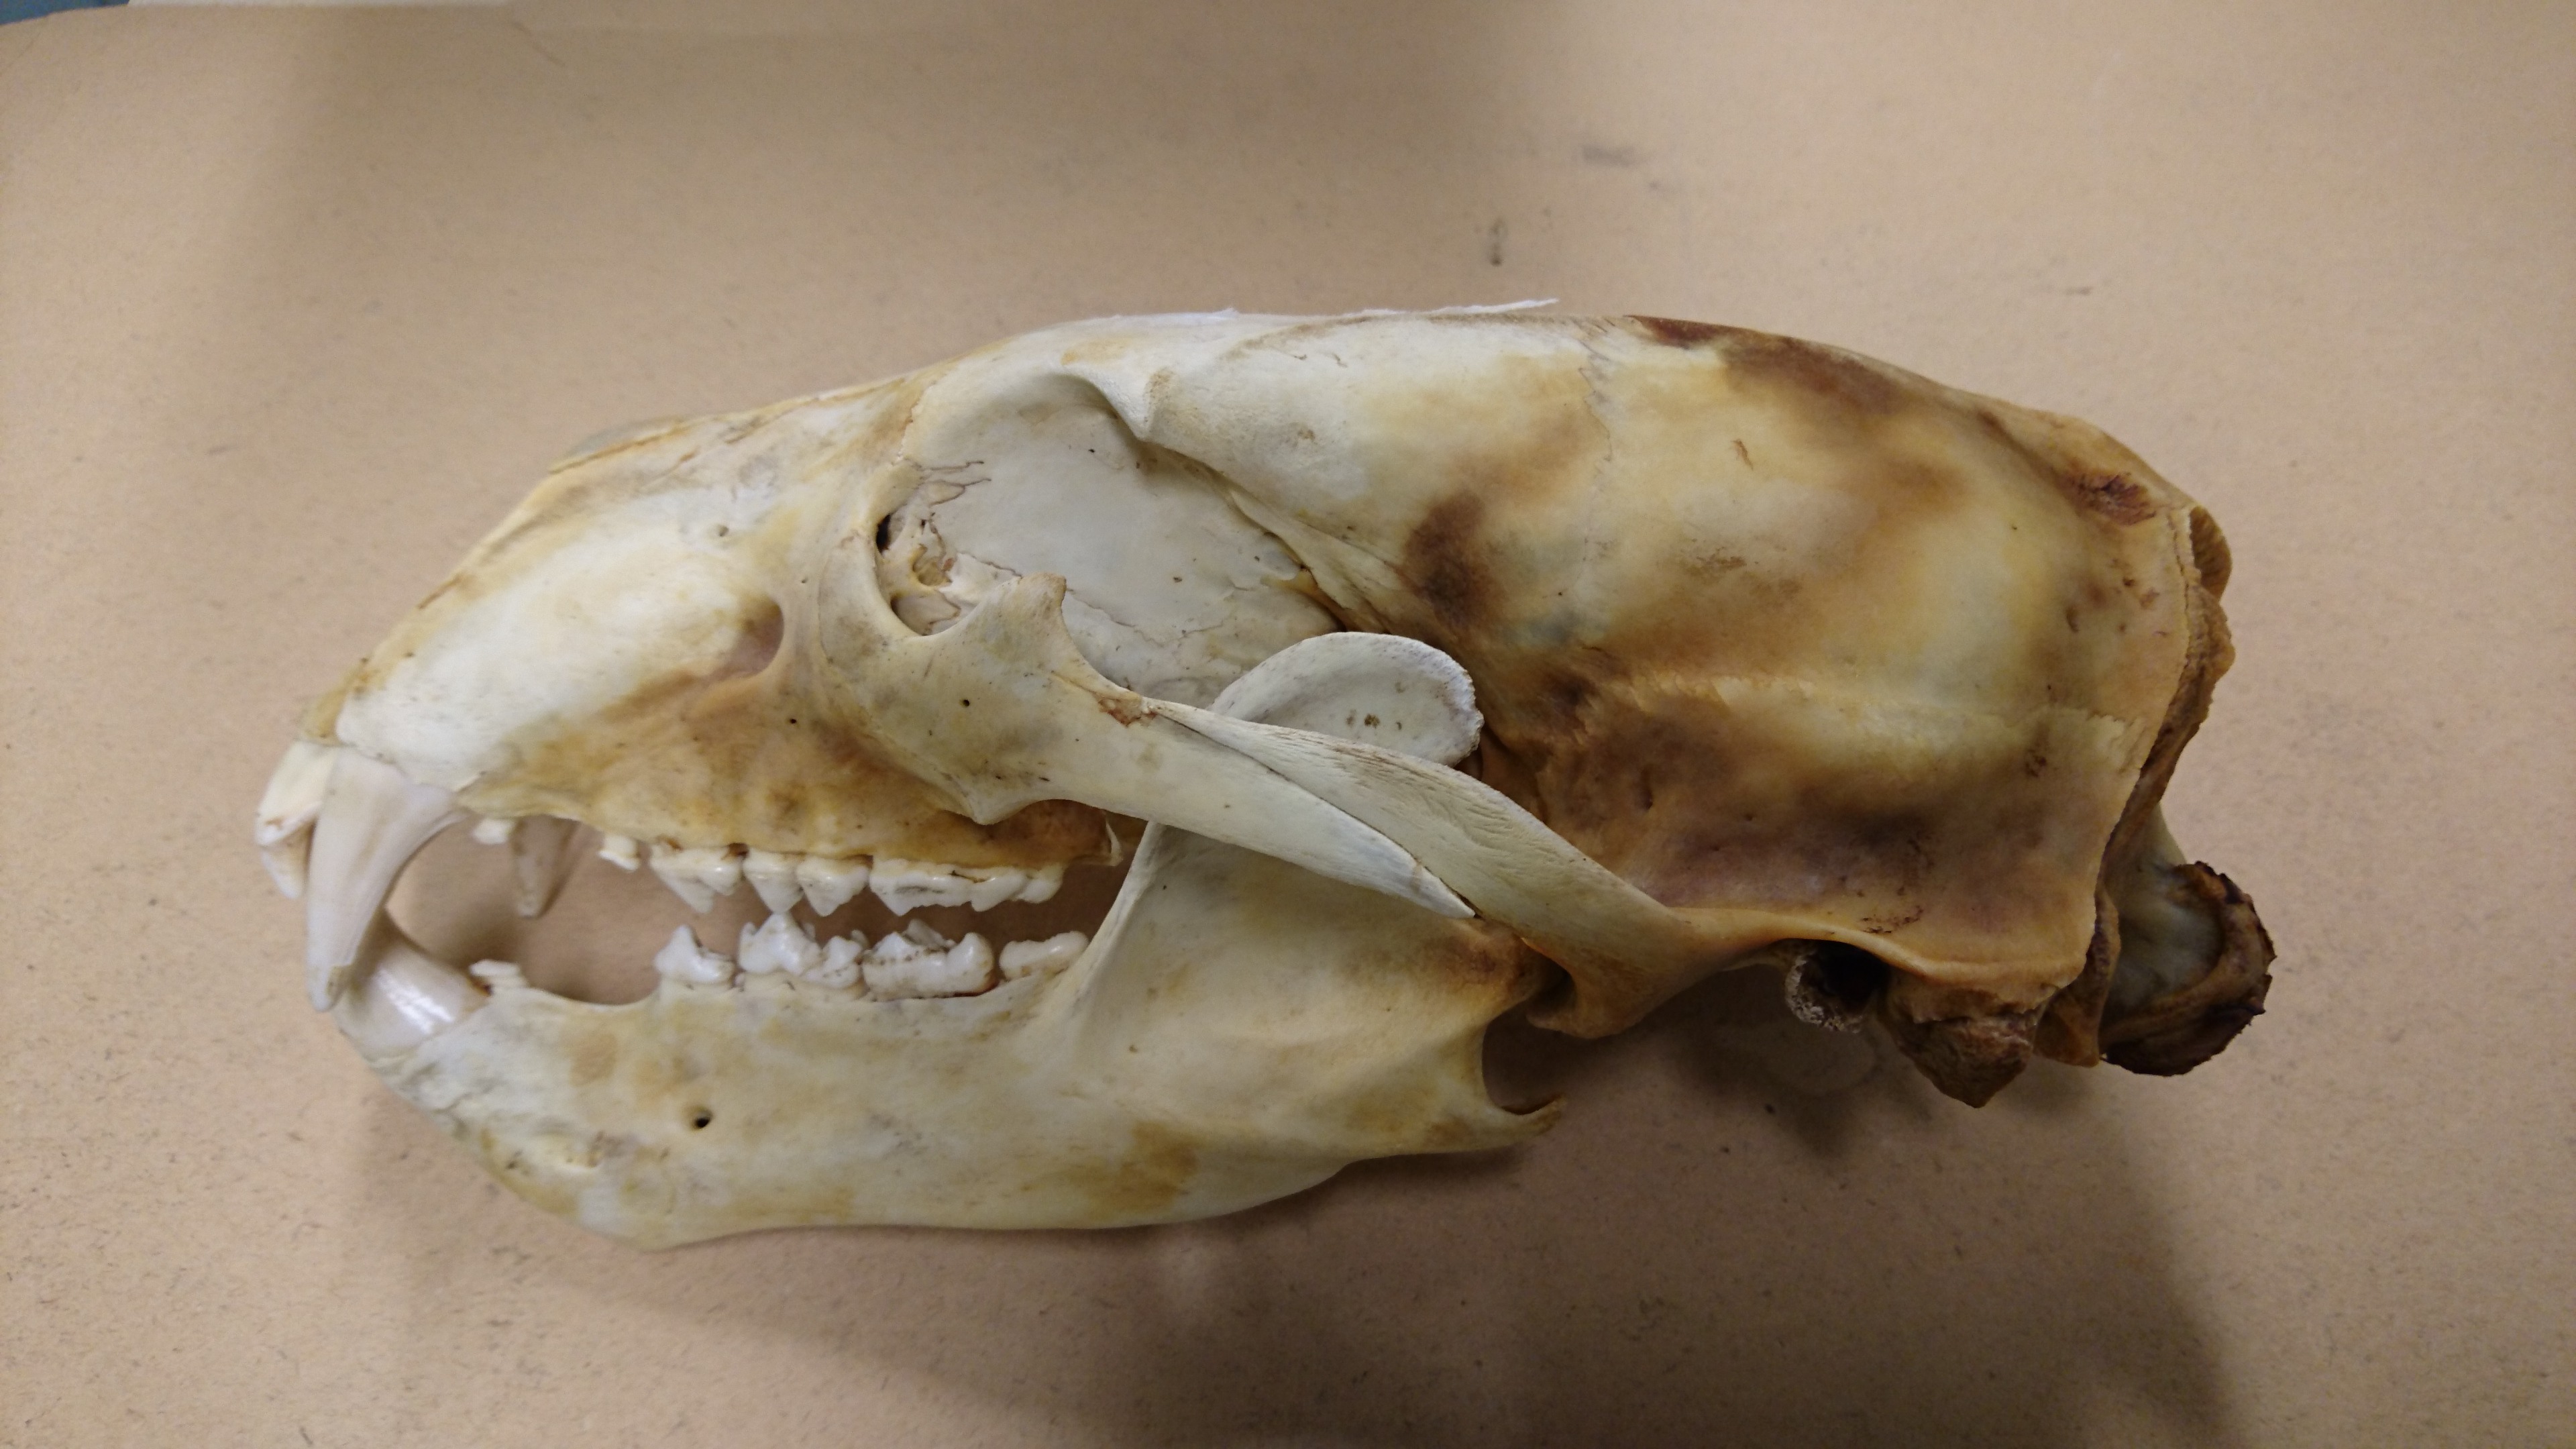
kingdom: Animalia
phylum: Chordata
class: Mammalia
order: Carnivora
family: Ursidae
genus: Ursus
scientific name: Ursus maritimus
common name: Polar bear
